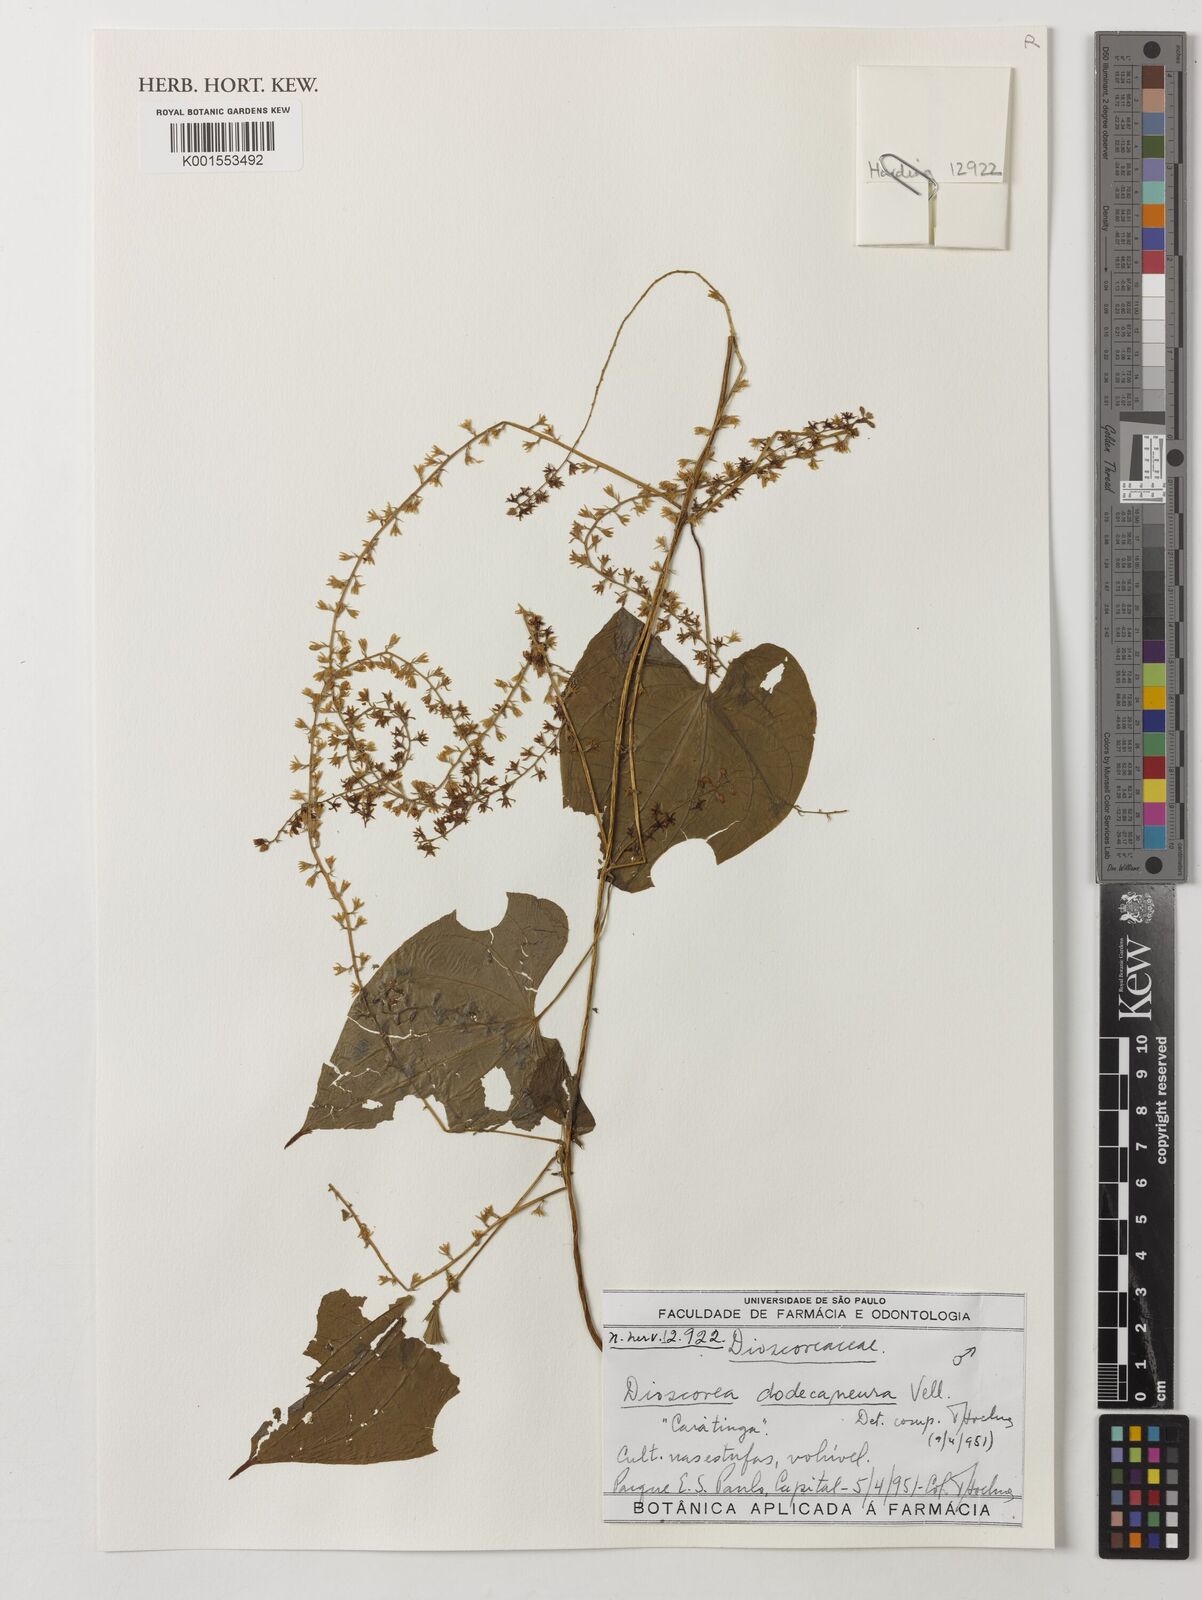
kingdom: Plantae
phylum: Tracheophyta
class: Liliopsida
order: Dioscoreales
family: Dioscoreaceae
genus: Dioscorea
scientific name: Dioscorea dodecaneura
